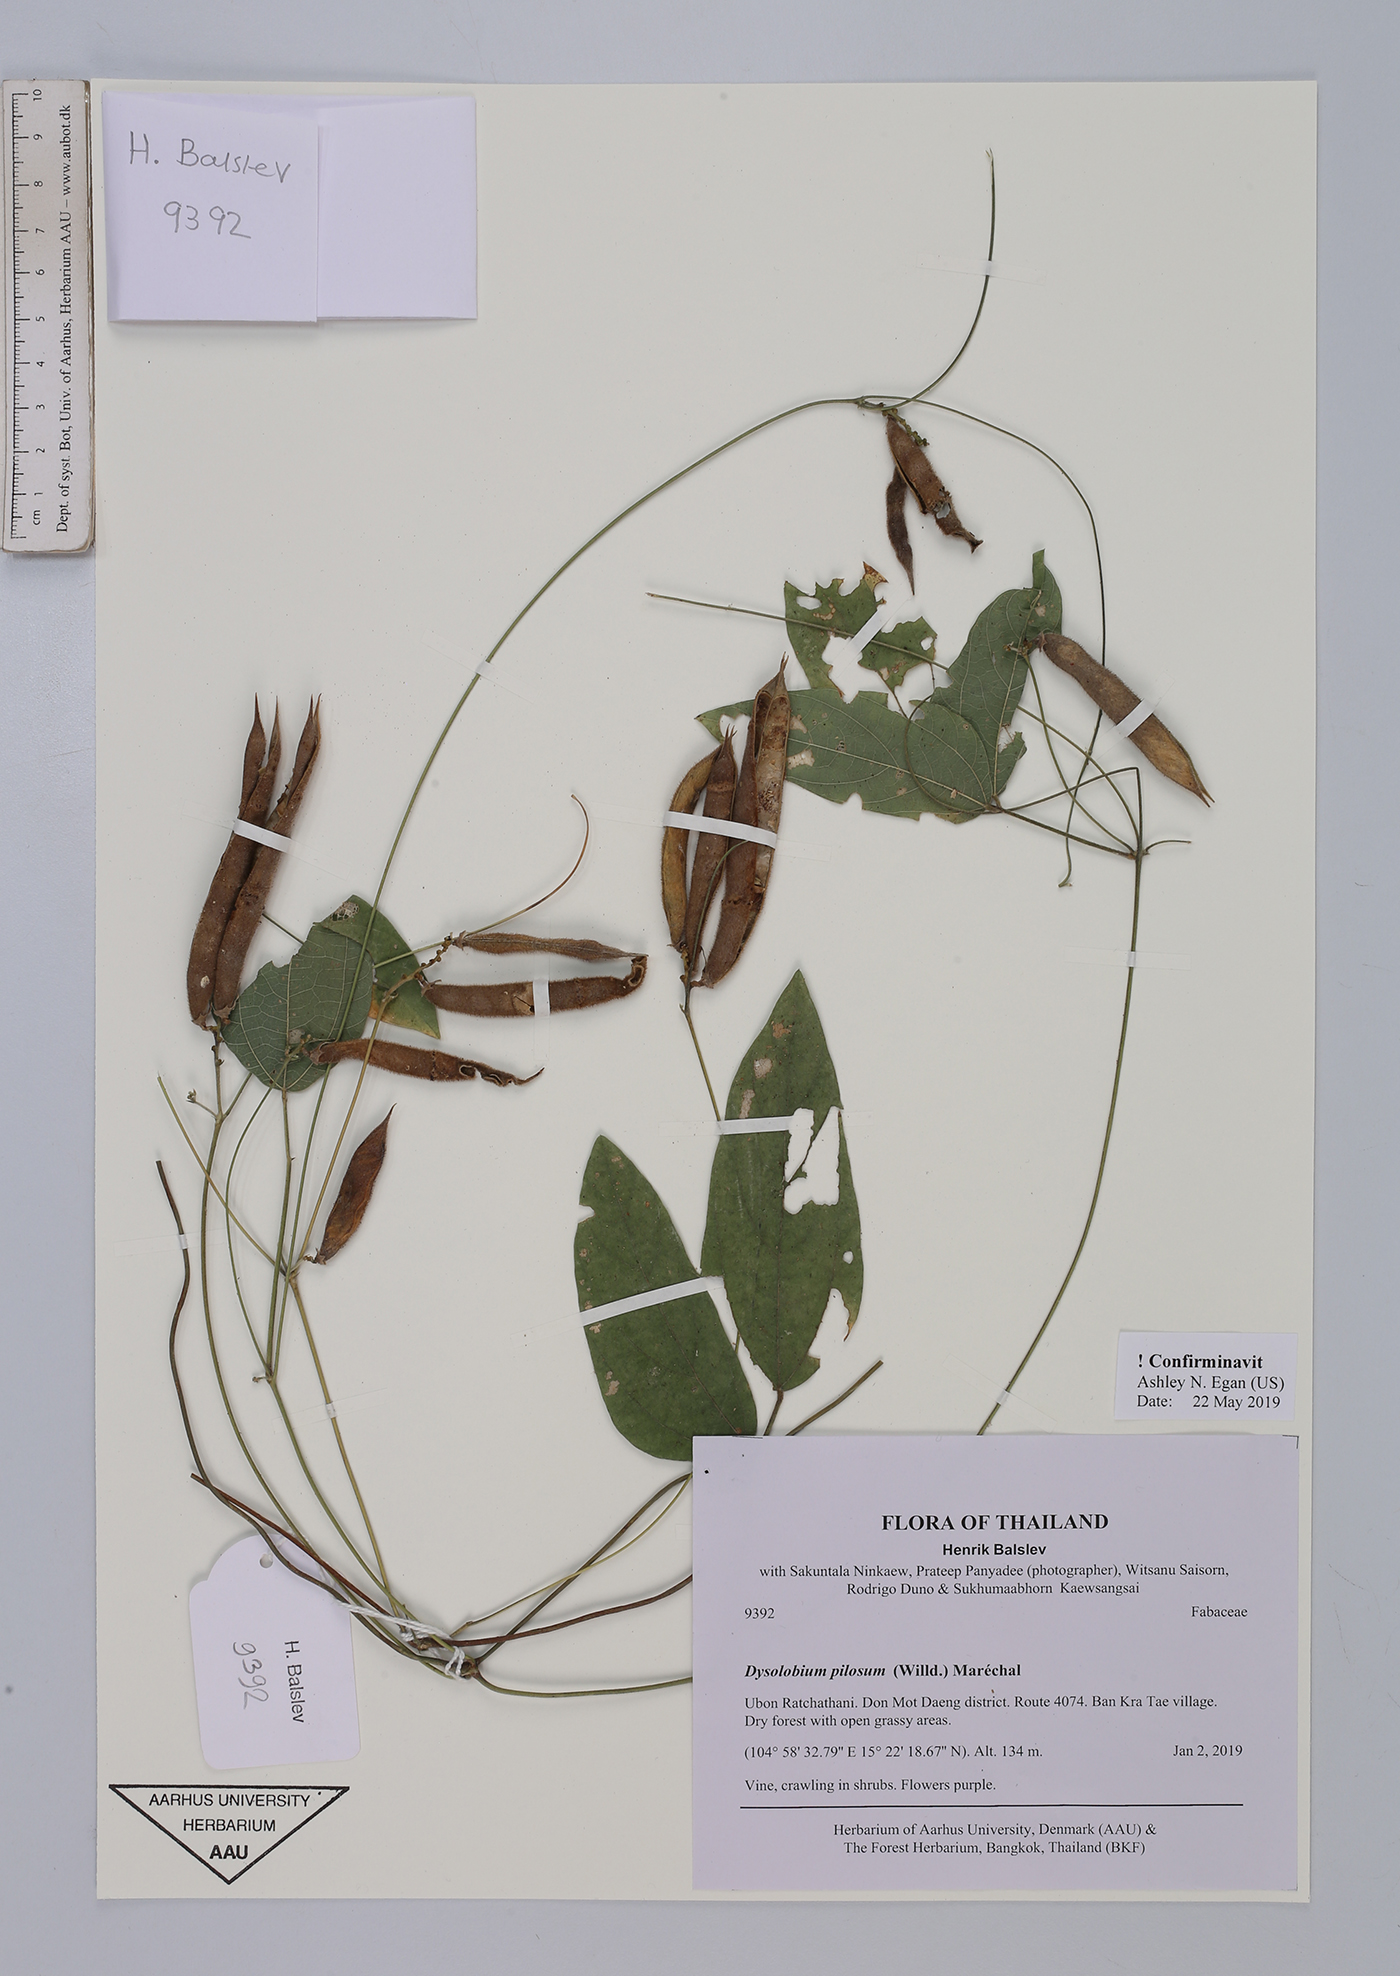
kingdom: Plantae
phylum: Tracheophyta
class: Magnoliopsida
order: Fabales
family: Fabaceae
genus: Dysolobium
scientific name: Dysolobium pilosum
